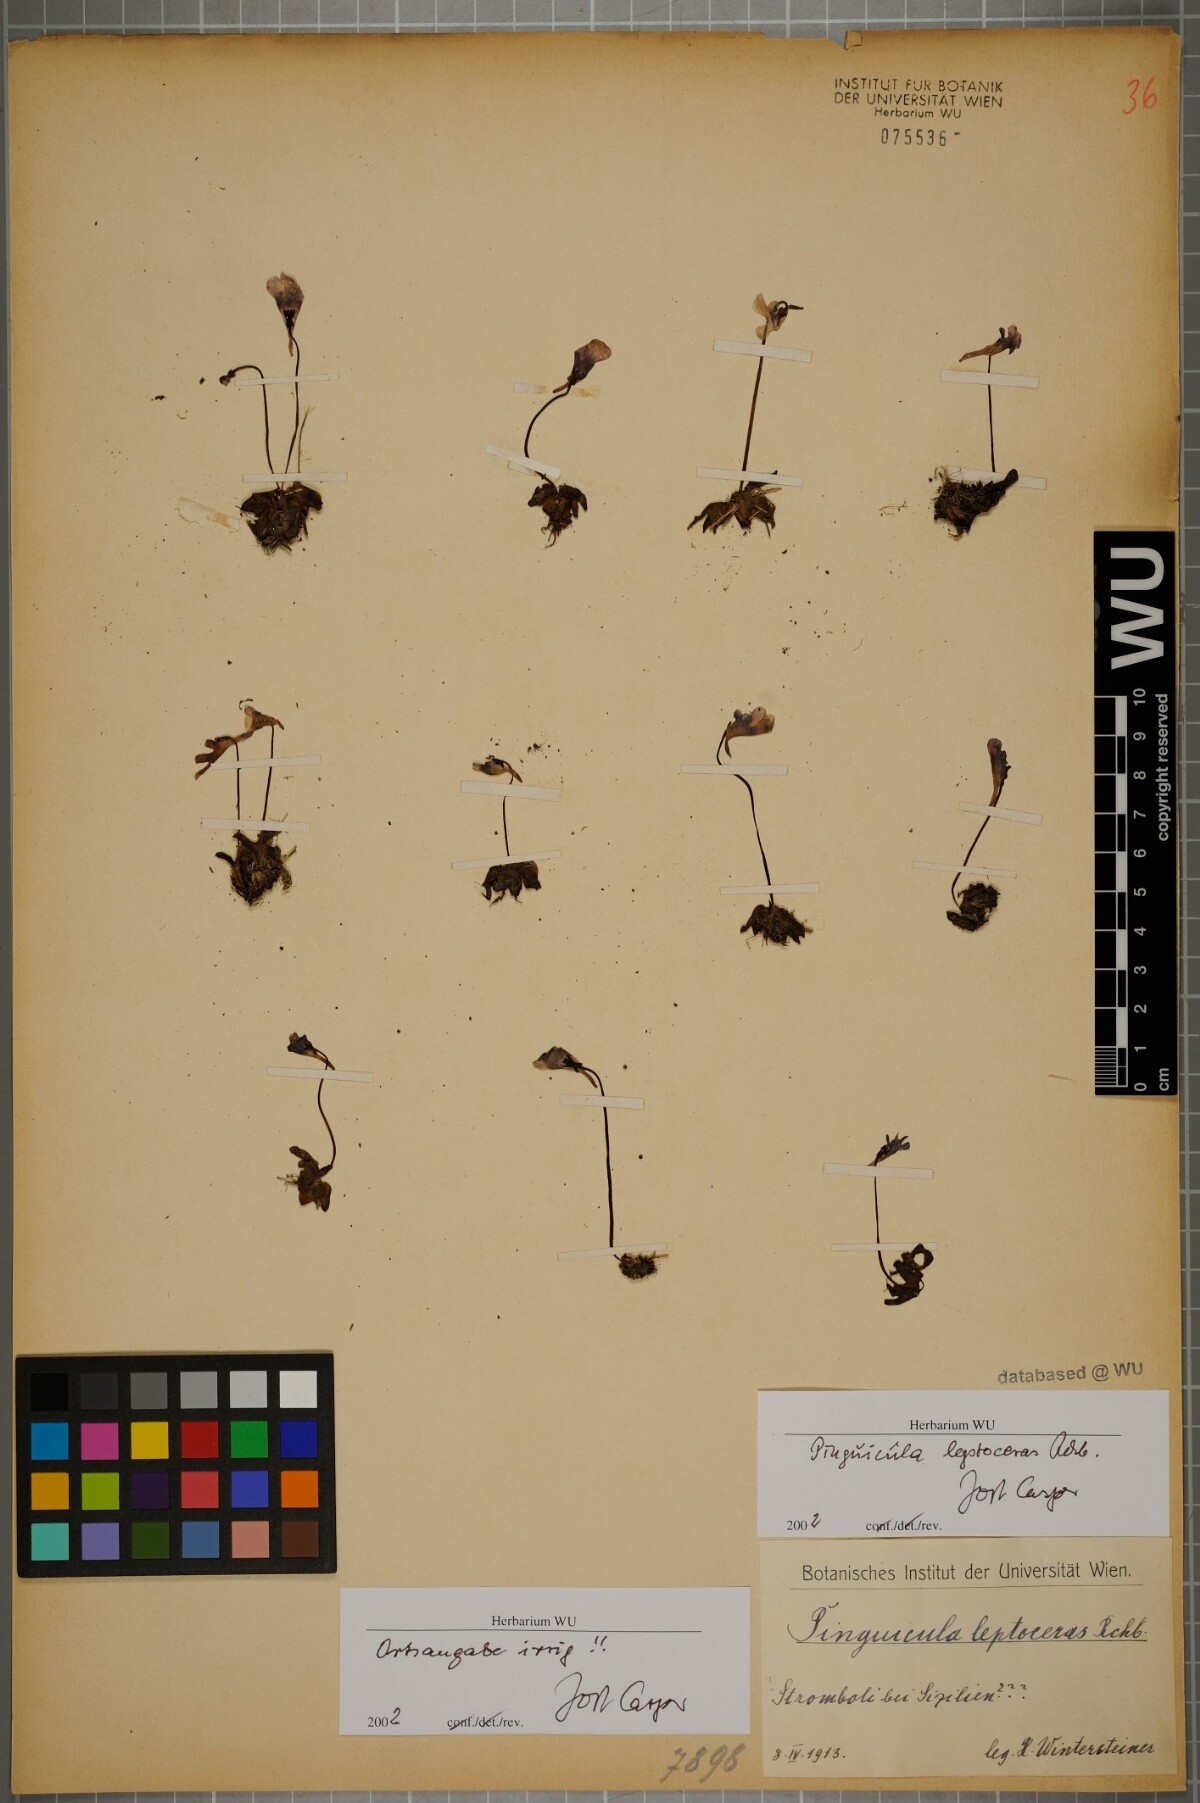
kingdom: Plantae
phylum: Tracheophyta
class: Magnoliopsida
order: Lamiales
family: Lentibulariaceae
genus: Pinguicula
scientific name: Pinguicula leptoceras
